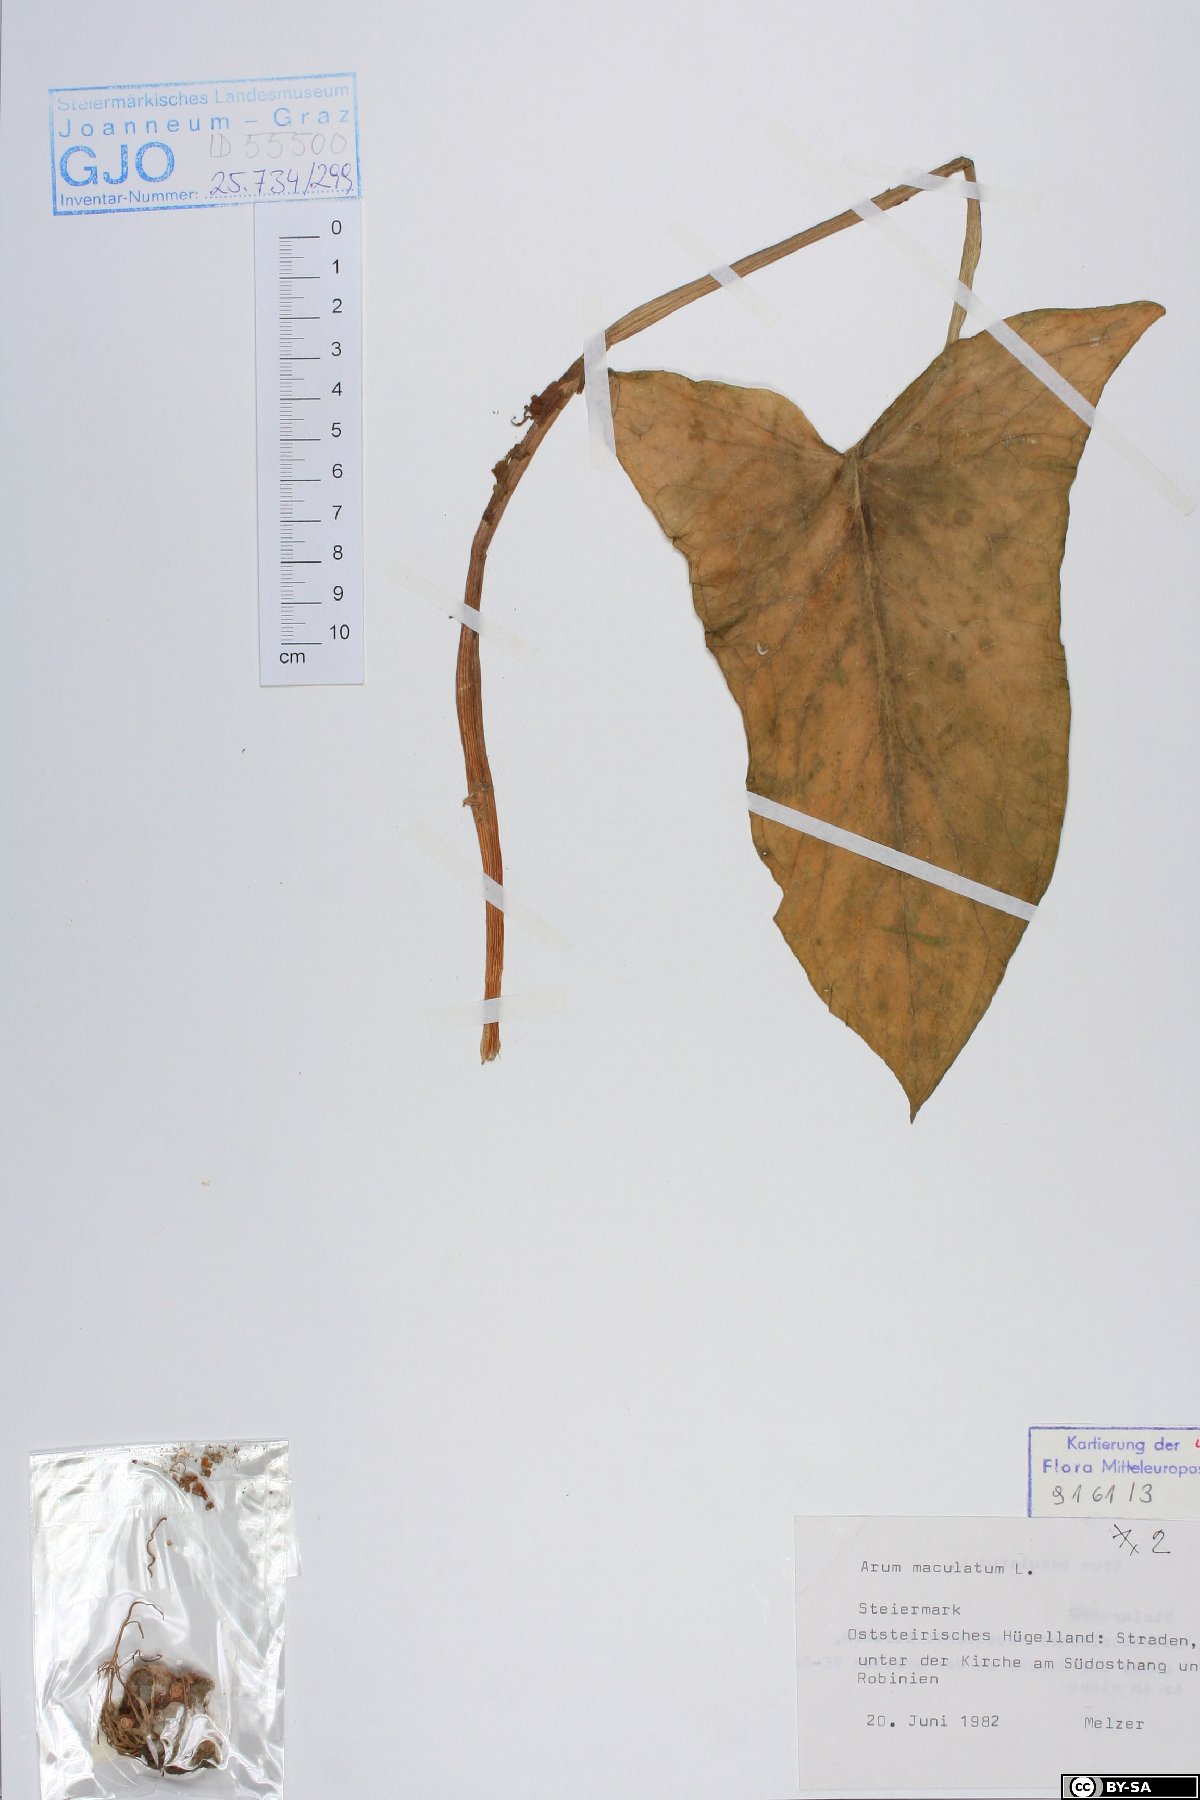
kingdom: Plantae
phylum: Tracheophyta
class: Liliopsida
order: Alismatales
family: Araceae
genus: Arum
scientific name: Arum maculatum
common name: Lords-and-ladies
